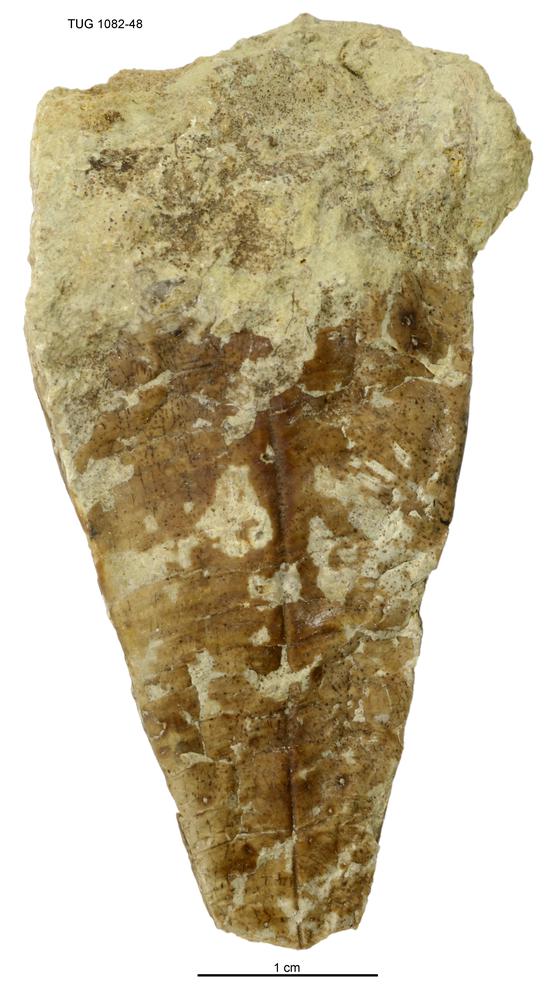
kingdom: Animalia
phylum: Cnidaria
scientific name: Cnidaria
